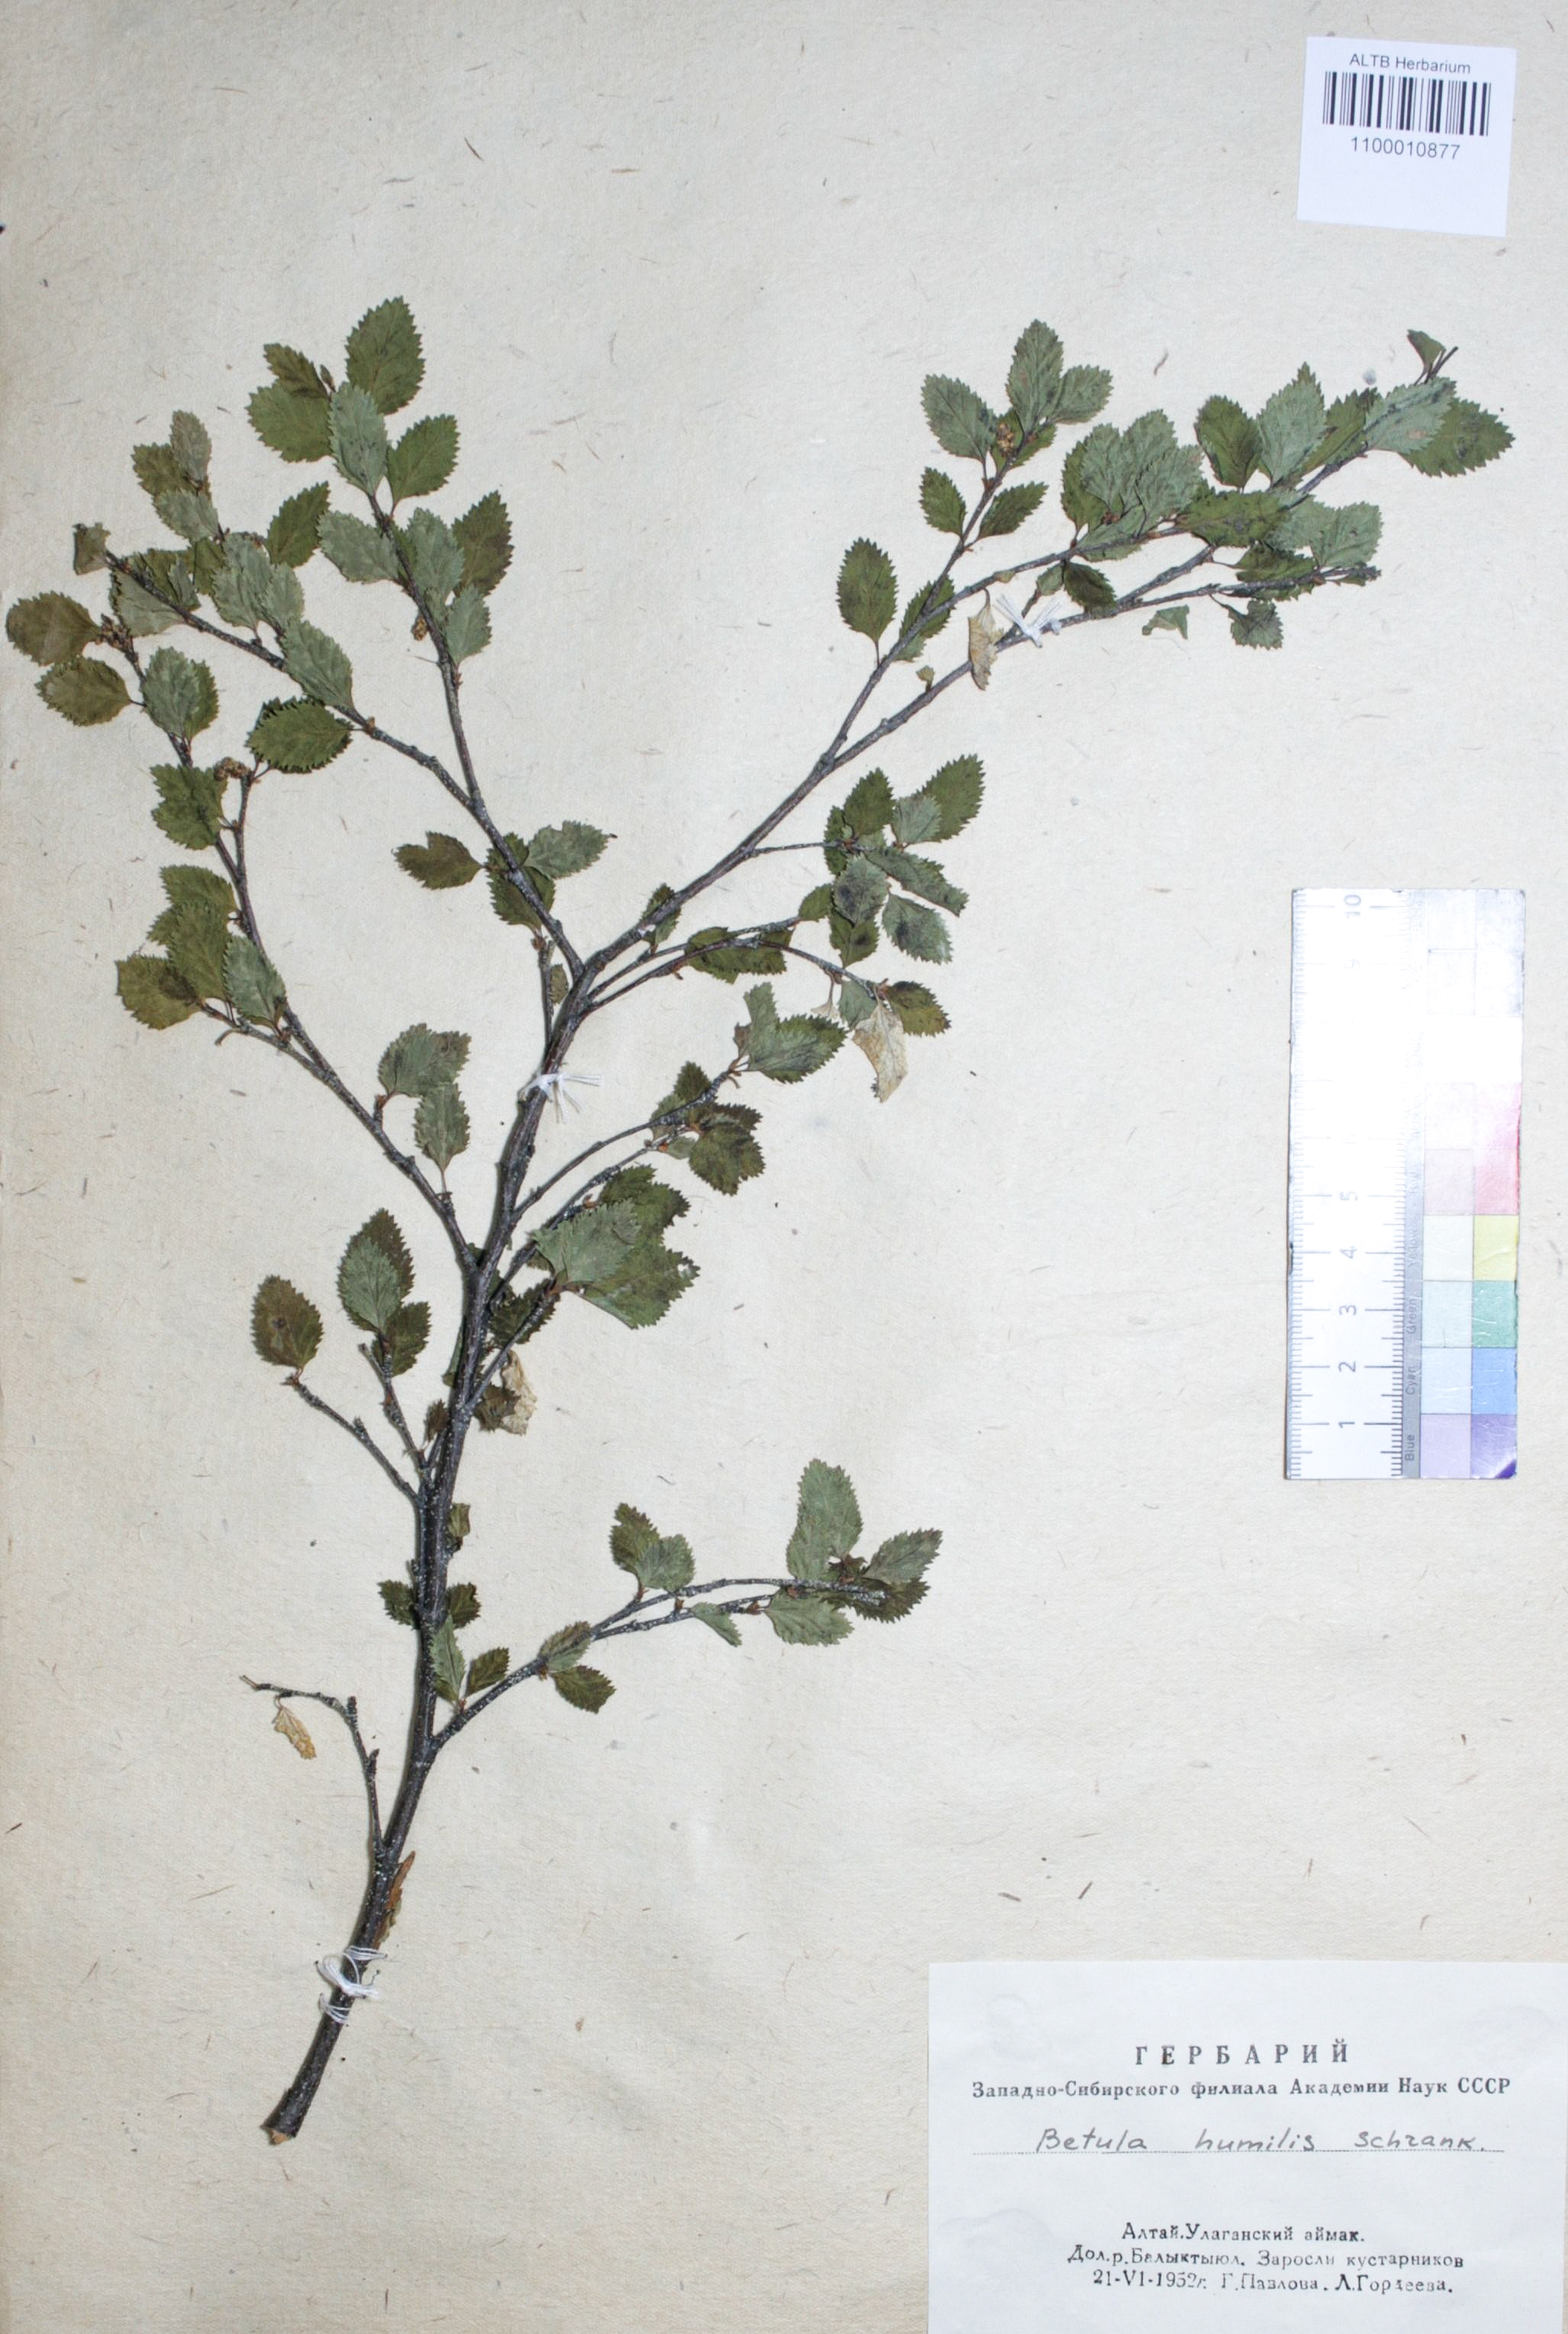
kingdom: Plantae
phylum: Tracheophyta
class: Magnoliopsida
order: Fagales
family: Betulaceae
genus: Betula
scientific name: Betula humilis
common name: Shrubby birch
